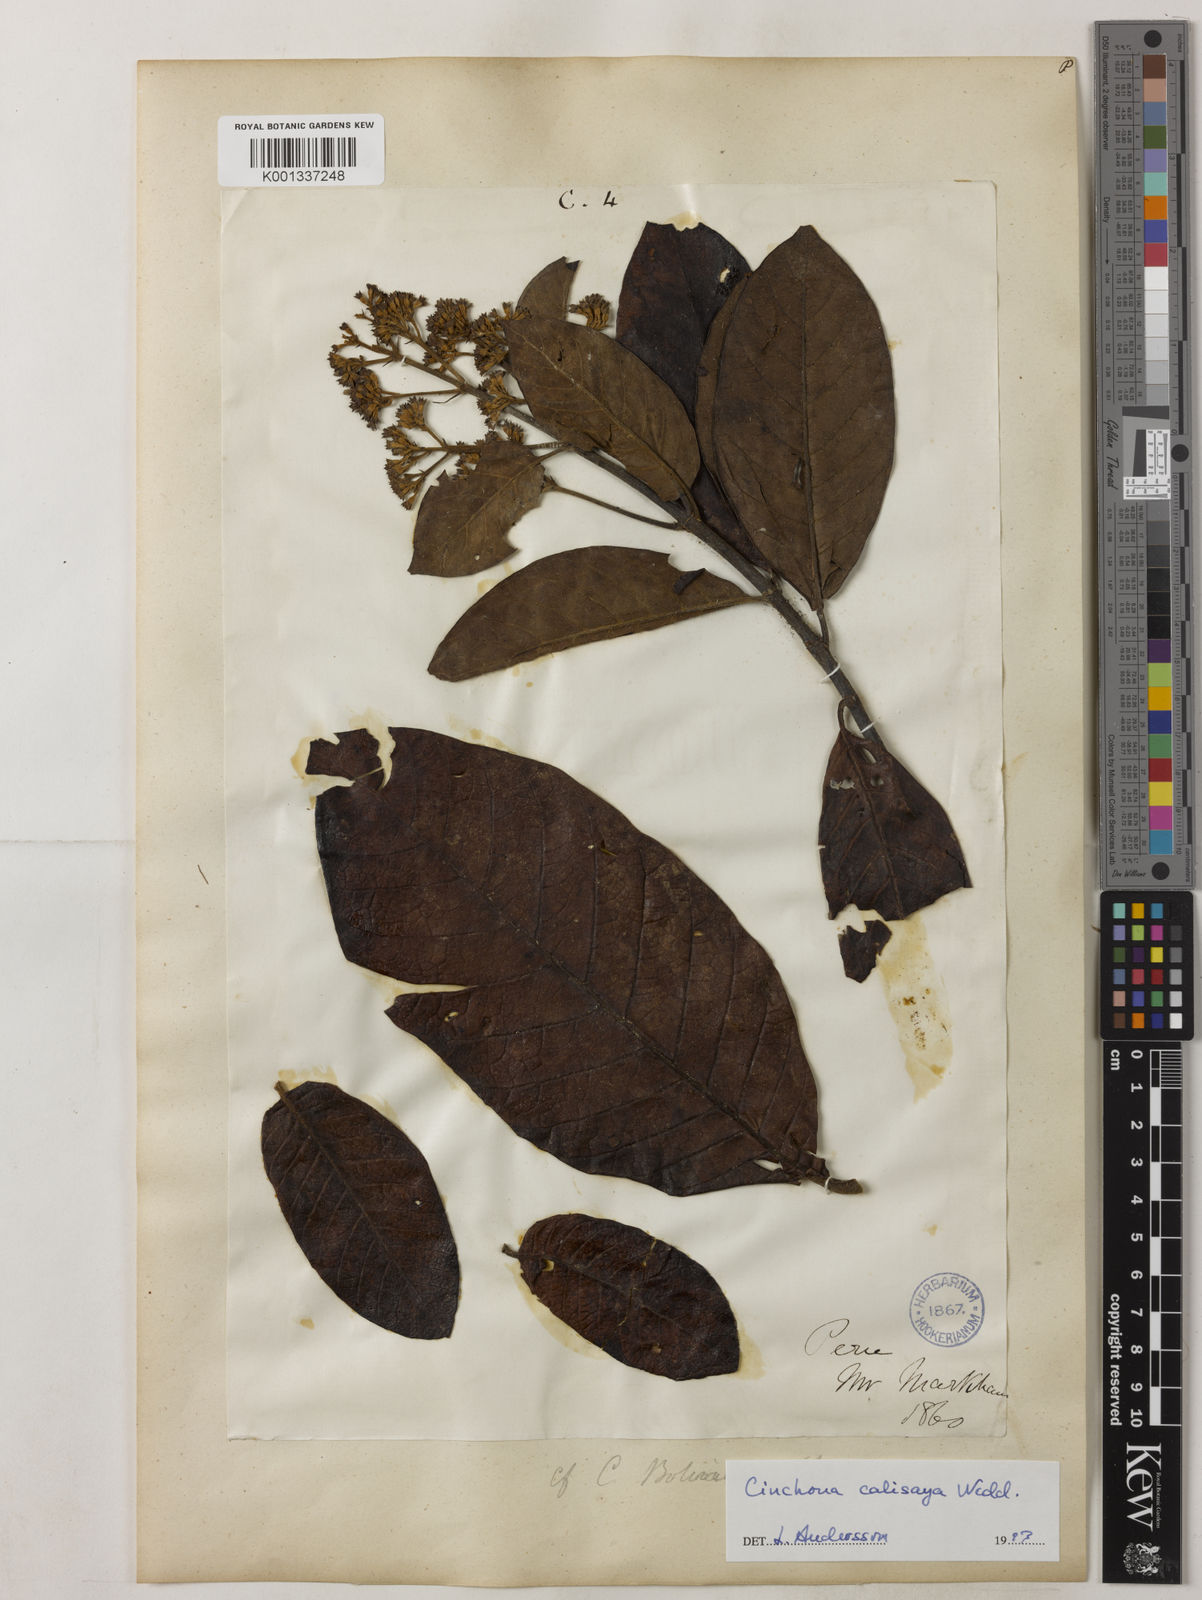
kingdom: Plantae
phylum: Tracheophyta
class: Magnoliopsida
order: Gentianales
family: Rubiaceae
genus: Cinchona
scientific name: Cinchona calisaya
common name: Ledgerbark
